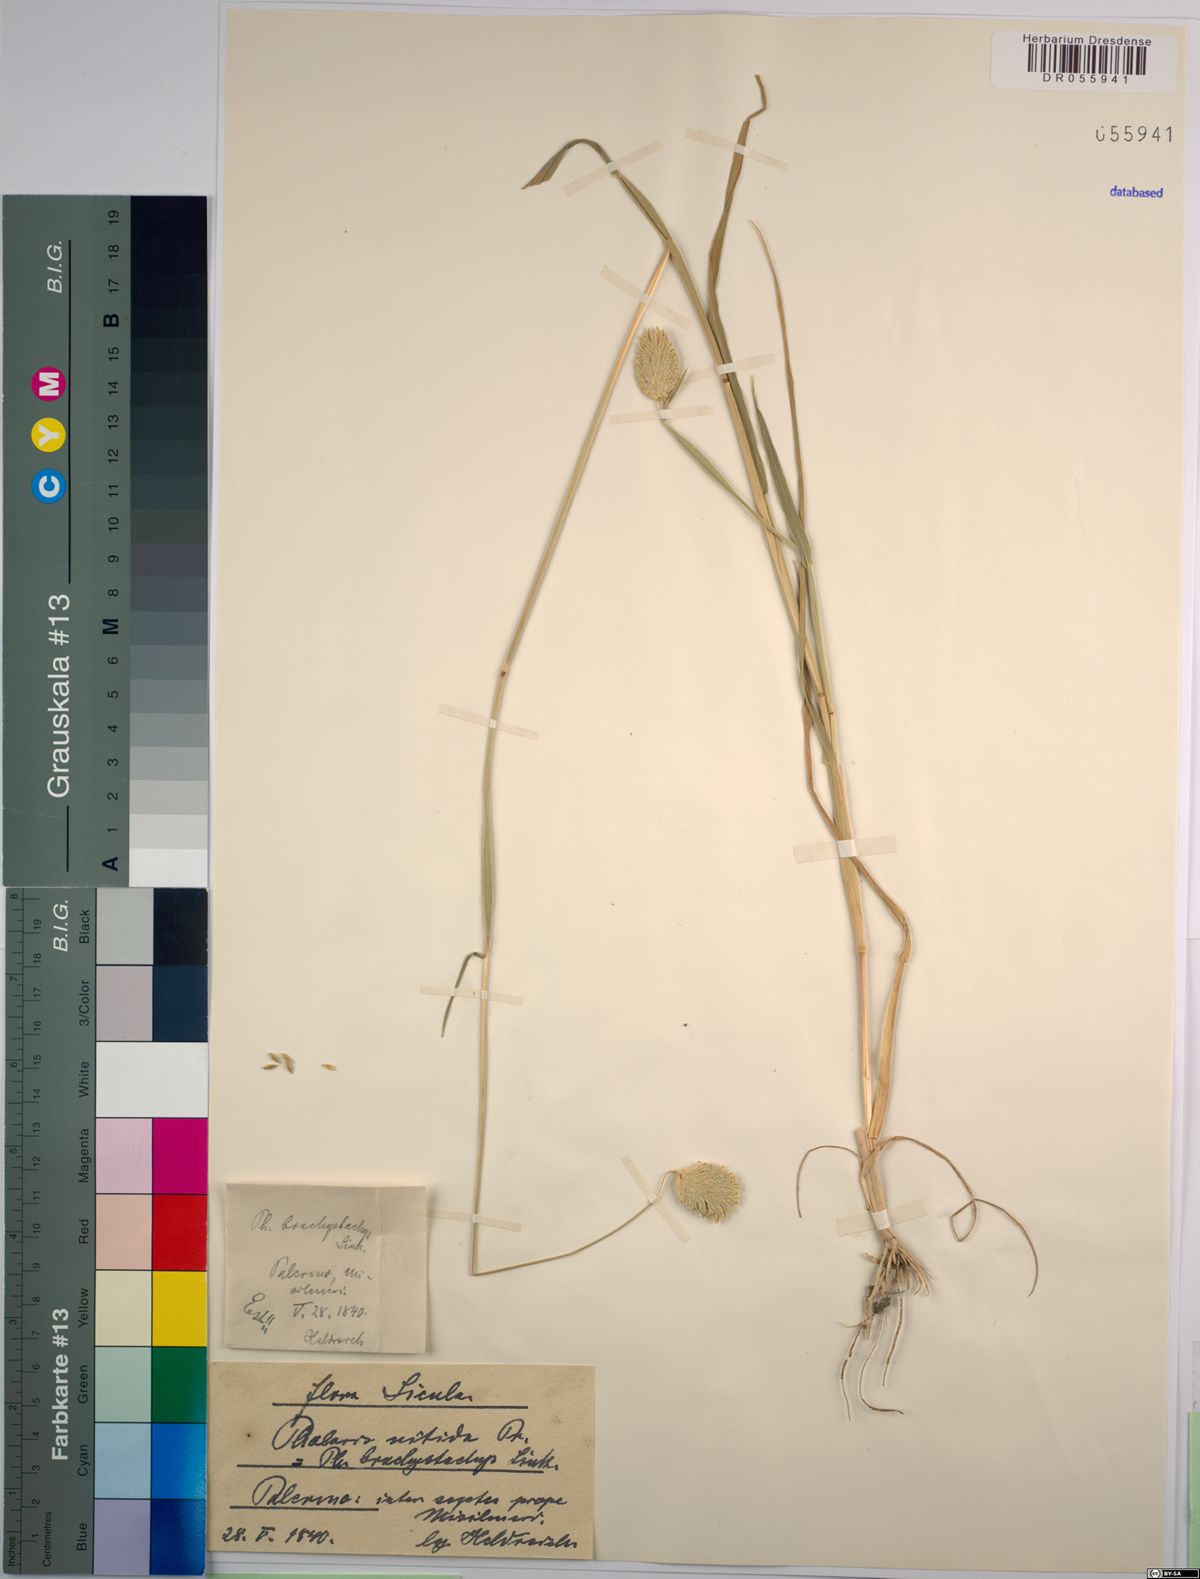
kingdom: Plantae
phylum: Tracheophyta
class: Liliopsida
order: Poales
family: Poaceae
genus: Phalaris
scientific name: Phalaris brachystachys
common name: Confused canary-grass
